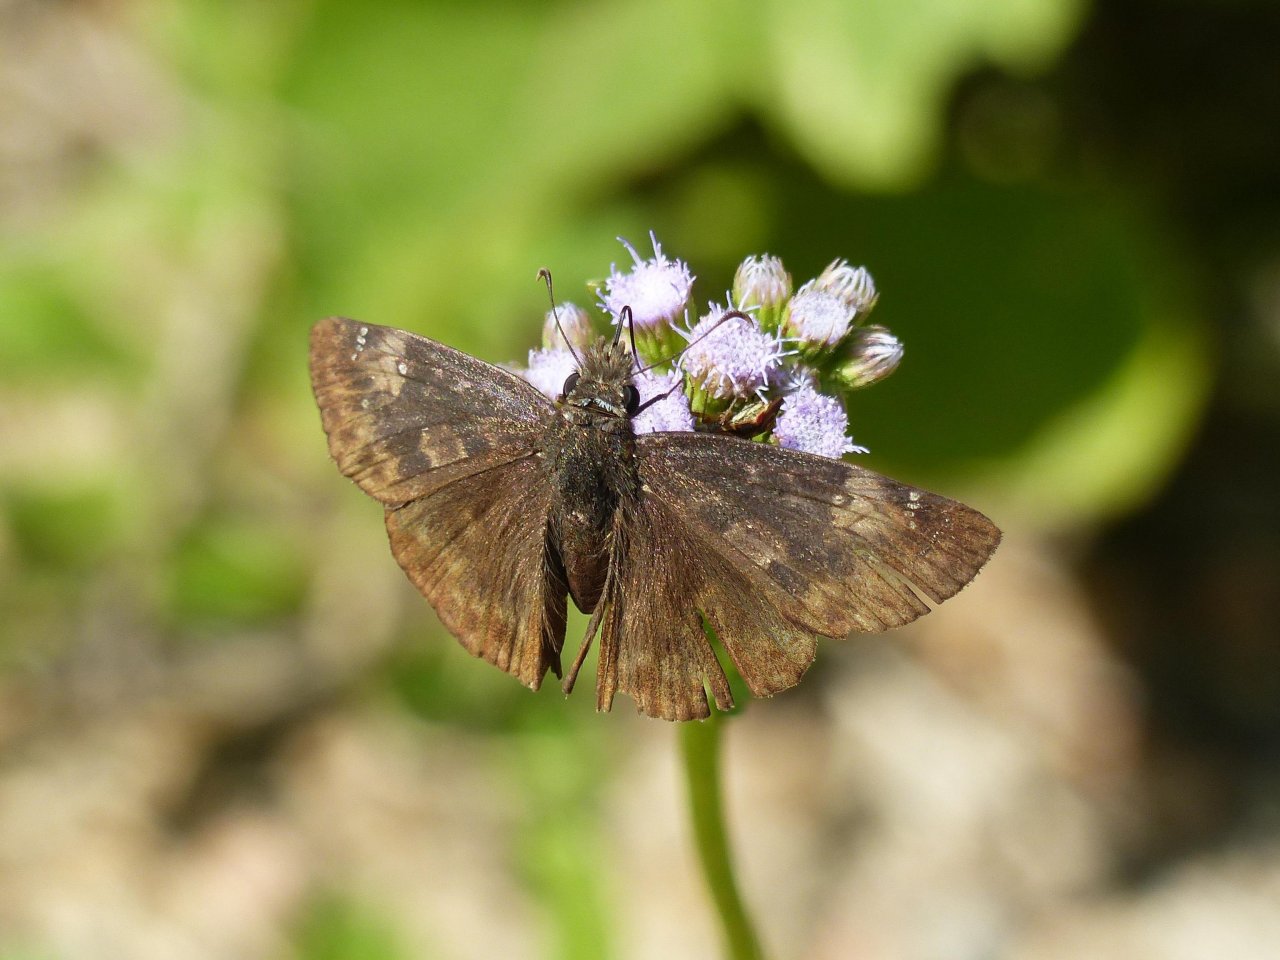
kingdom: Animalia
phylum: Arthropoda
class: Insecta
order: Lepidoptera
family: Hesperiidae
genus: Gesta
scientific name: Gesta
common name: Horace's Duskywing
